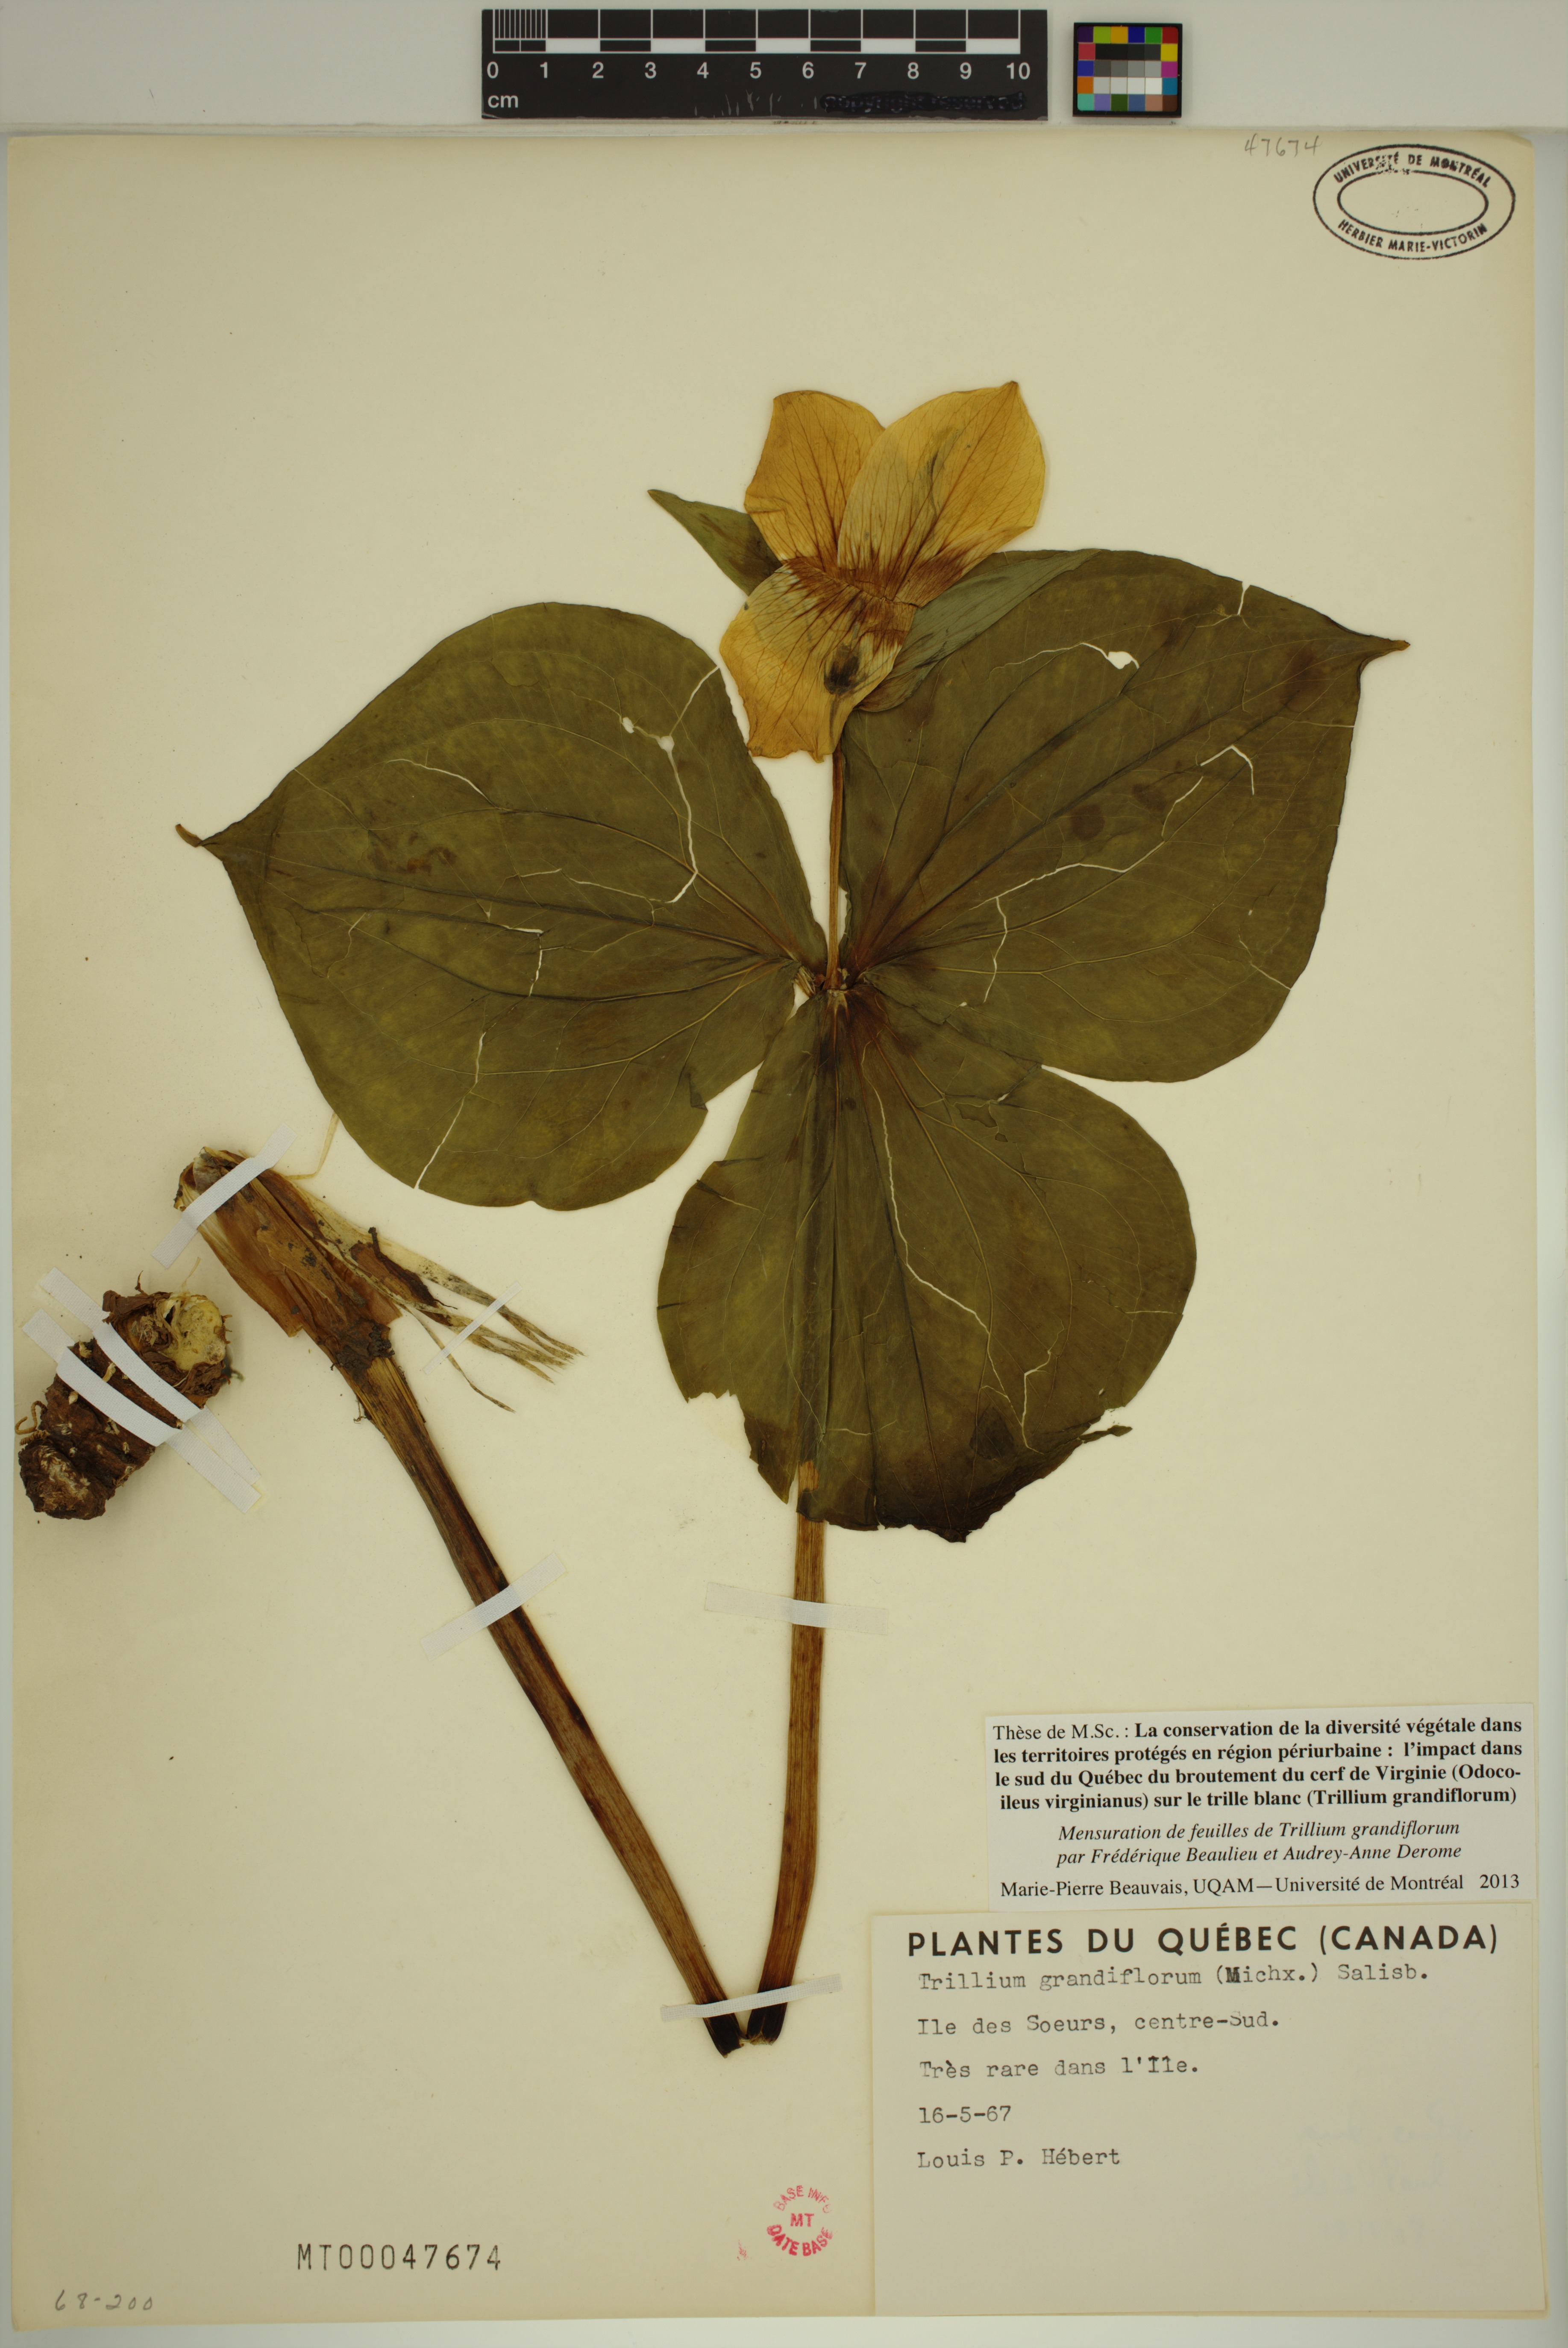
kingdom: Plantae
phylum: Tracheophyta
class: Liliopsida
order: Liliales
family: Melanthiaceae
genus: Trillium
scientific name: Trillium grandiflorum
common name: Great white trillium
